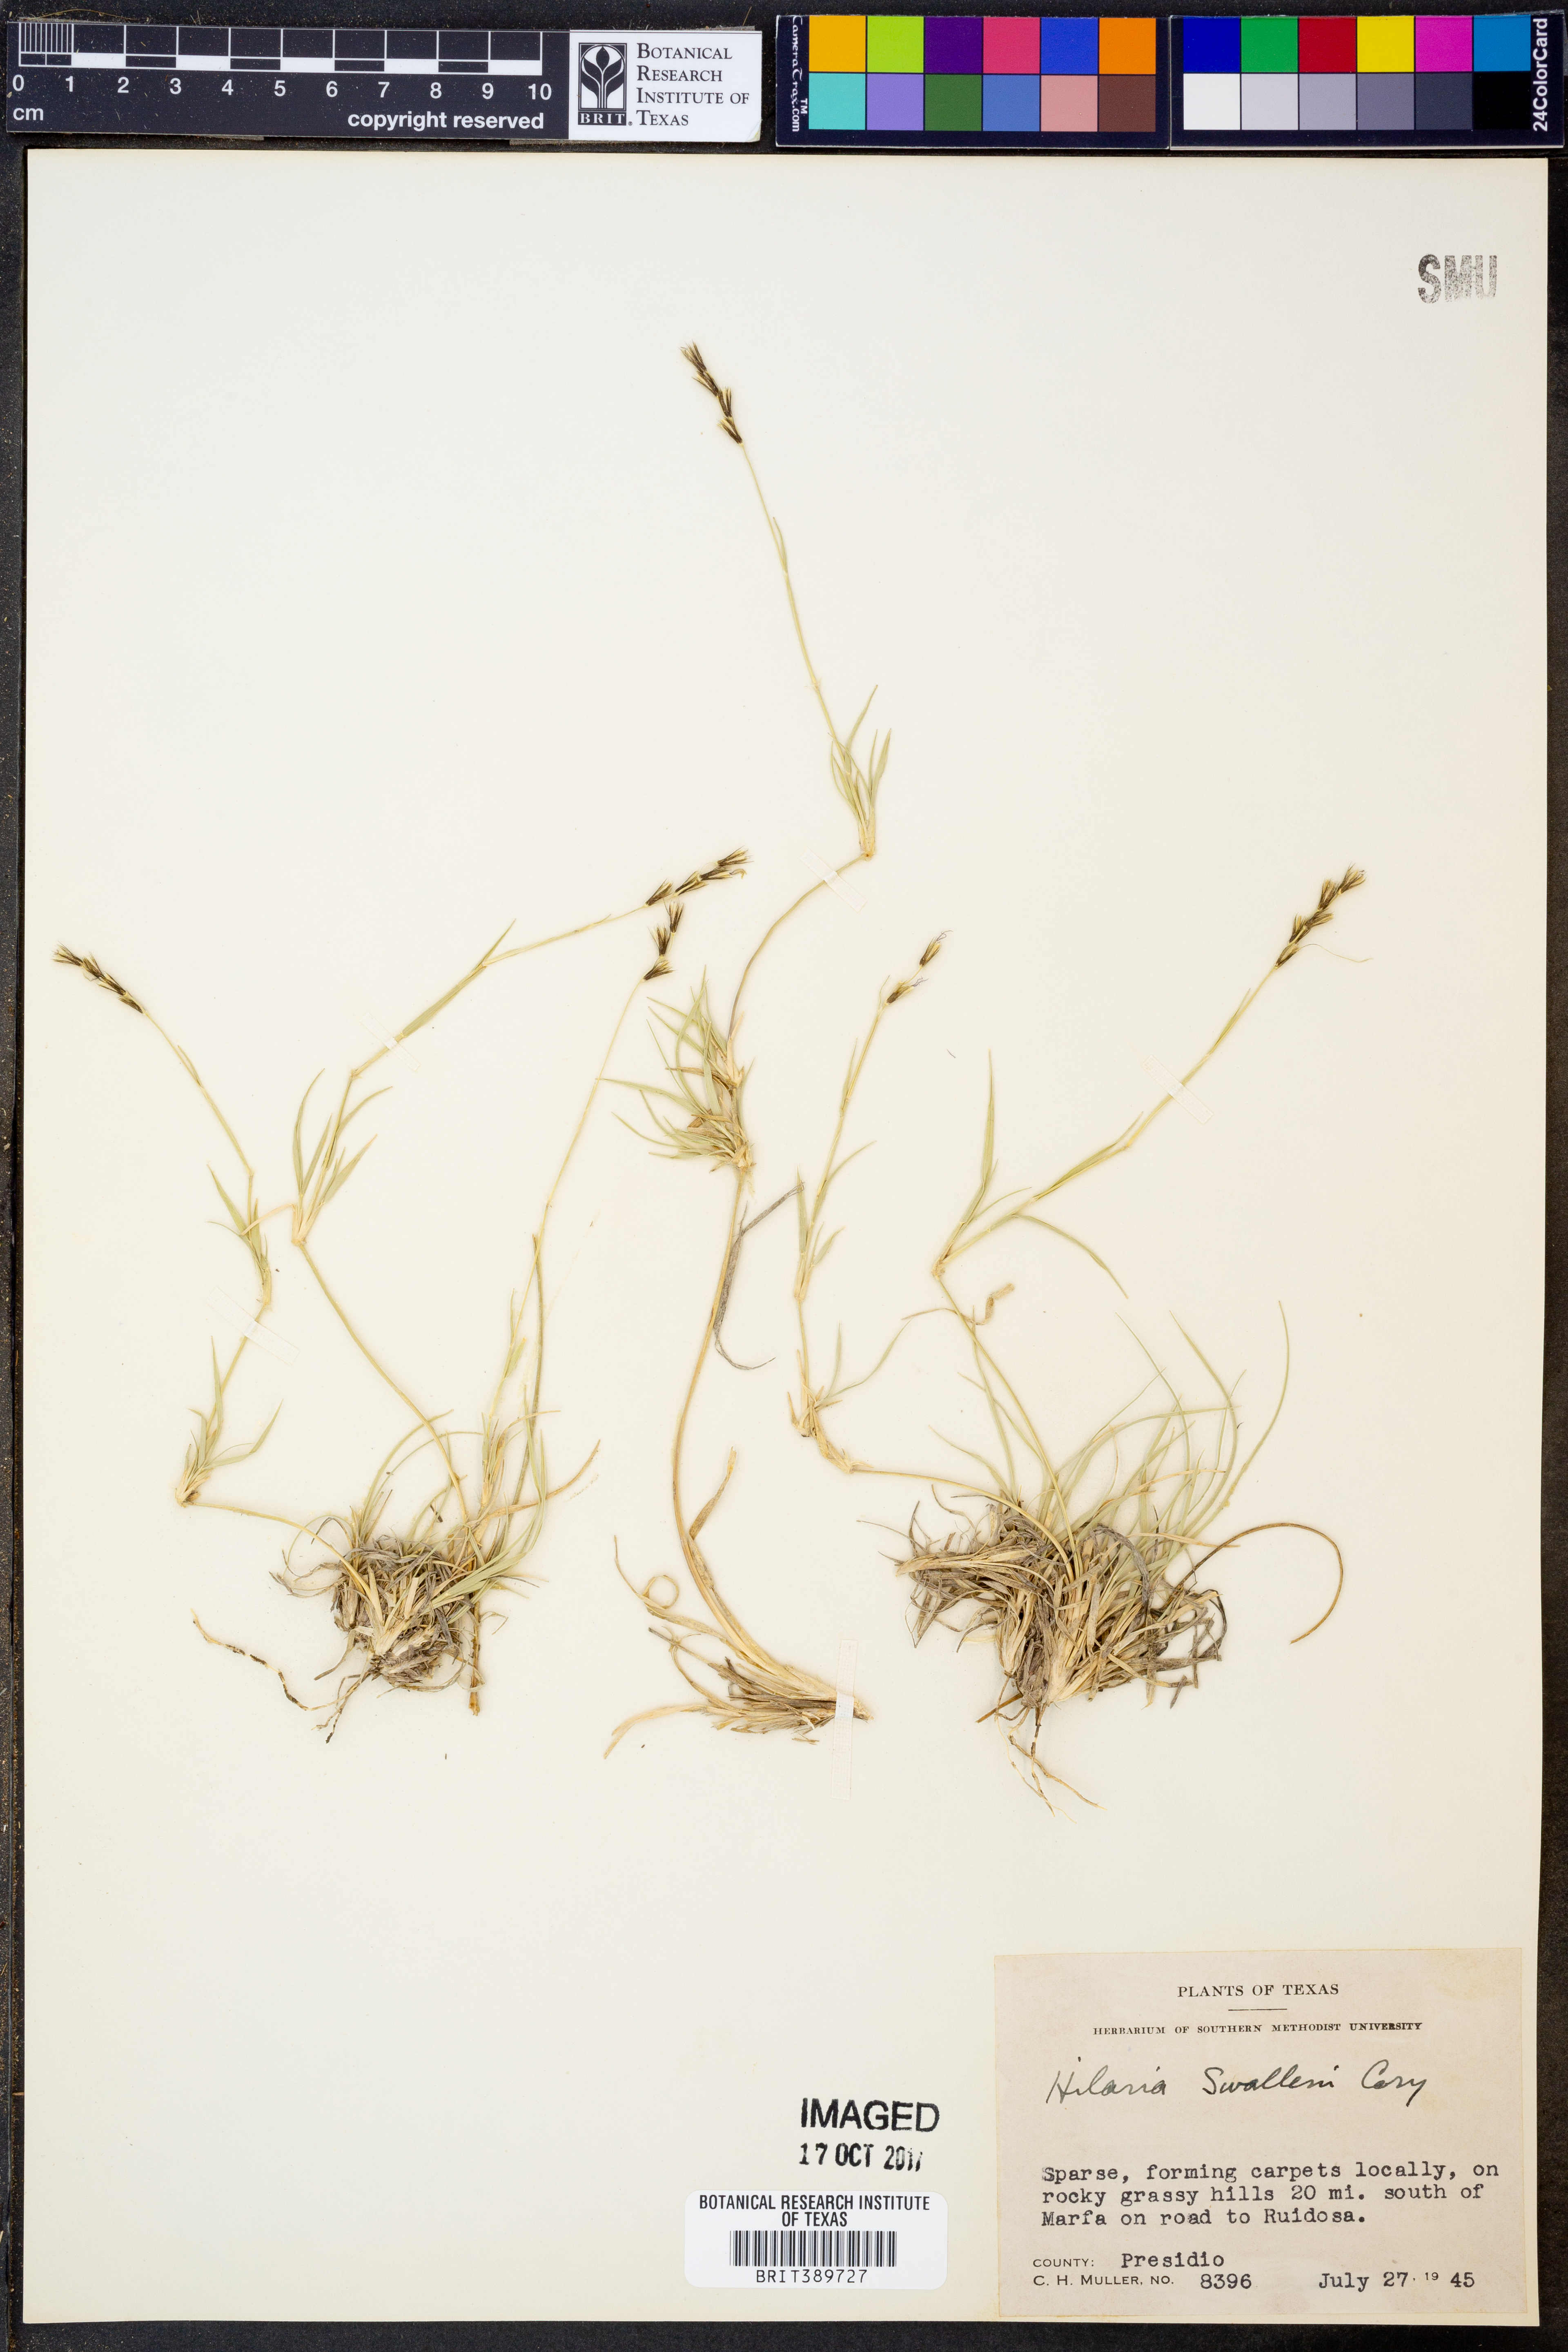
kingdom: Plantae
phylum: Tracheophyta
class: Liliopsida
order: Poales
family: Poaceae
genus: Hilaria
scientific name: Hilaria swallenii
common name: Swallen's curly-mesquite
